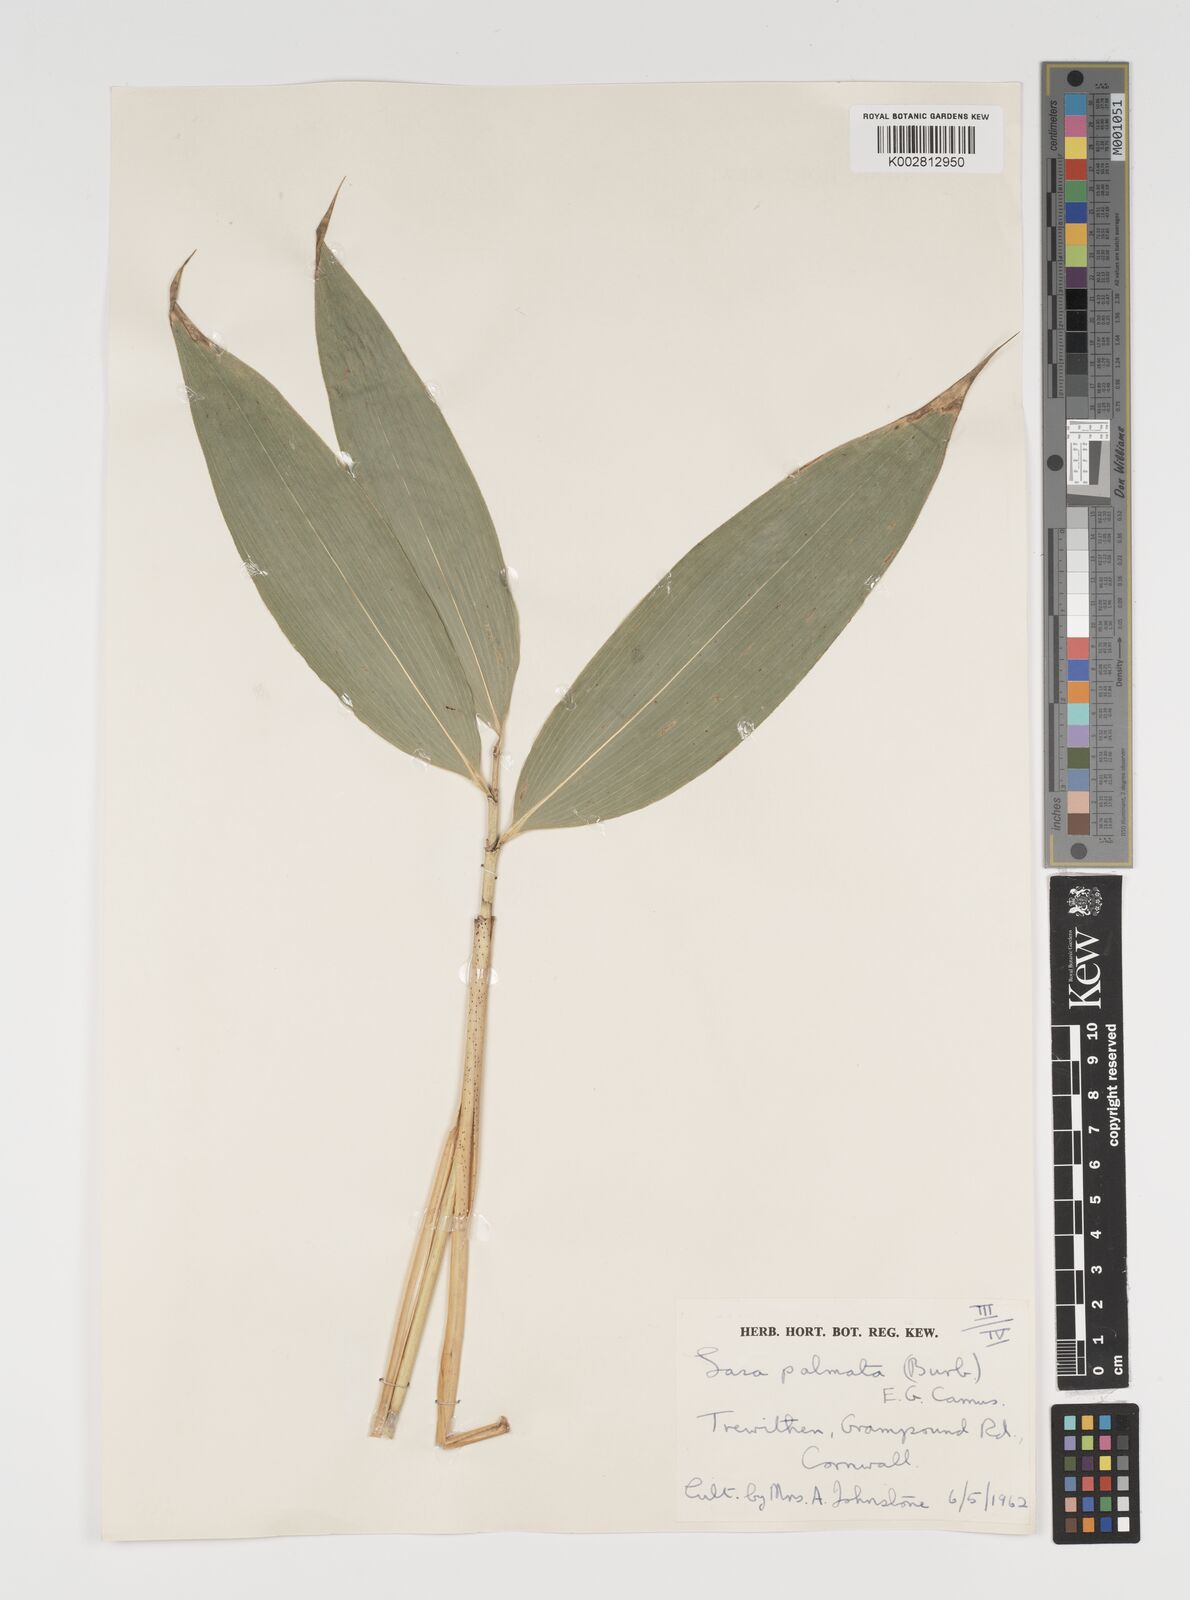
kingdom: Plantae
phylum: Tracheophyta
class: Liliopsida
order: Poales
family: Poaceae
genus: Sasa
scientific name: Sasa palmata
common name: Broad-leaved bamboo
